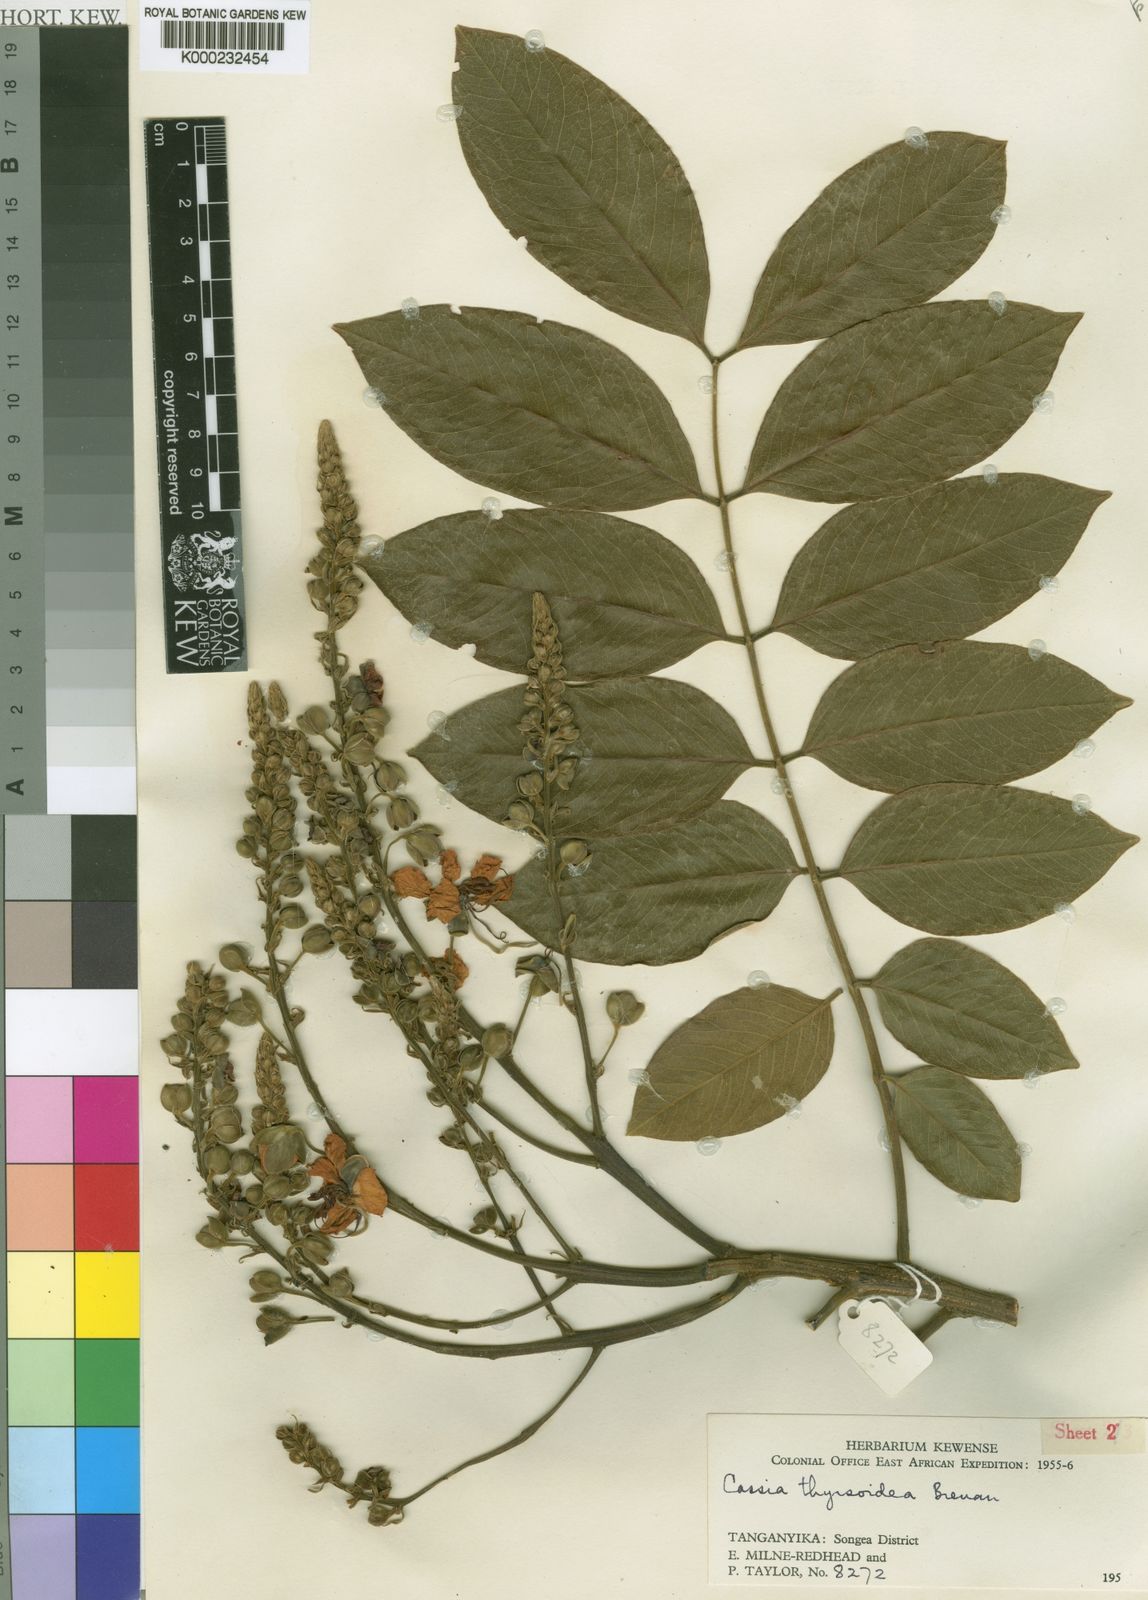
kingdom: Plantae
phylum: Tracheophyta
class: Magnoliopsida
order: Fabales
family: Fabaceae
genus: Cassia
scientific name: Cassia thyrsoidea
